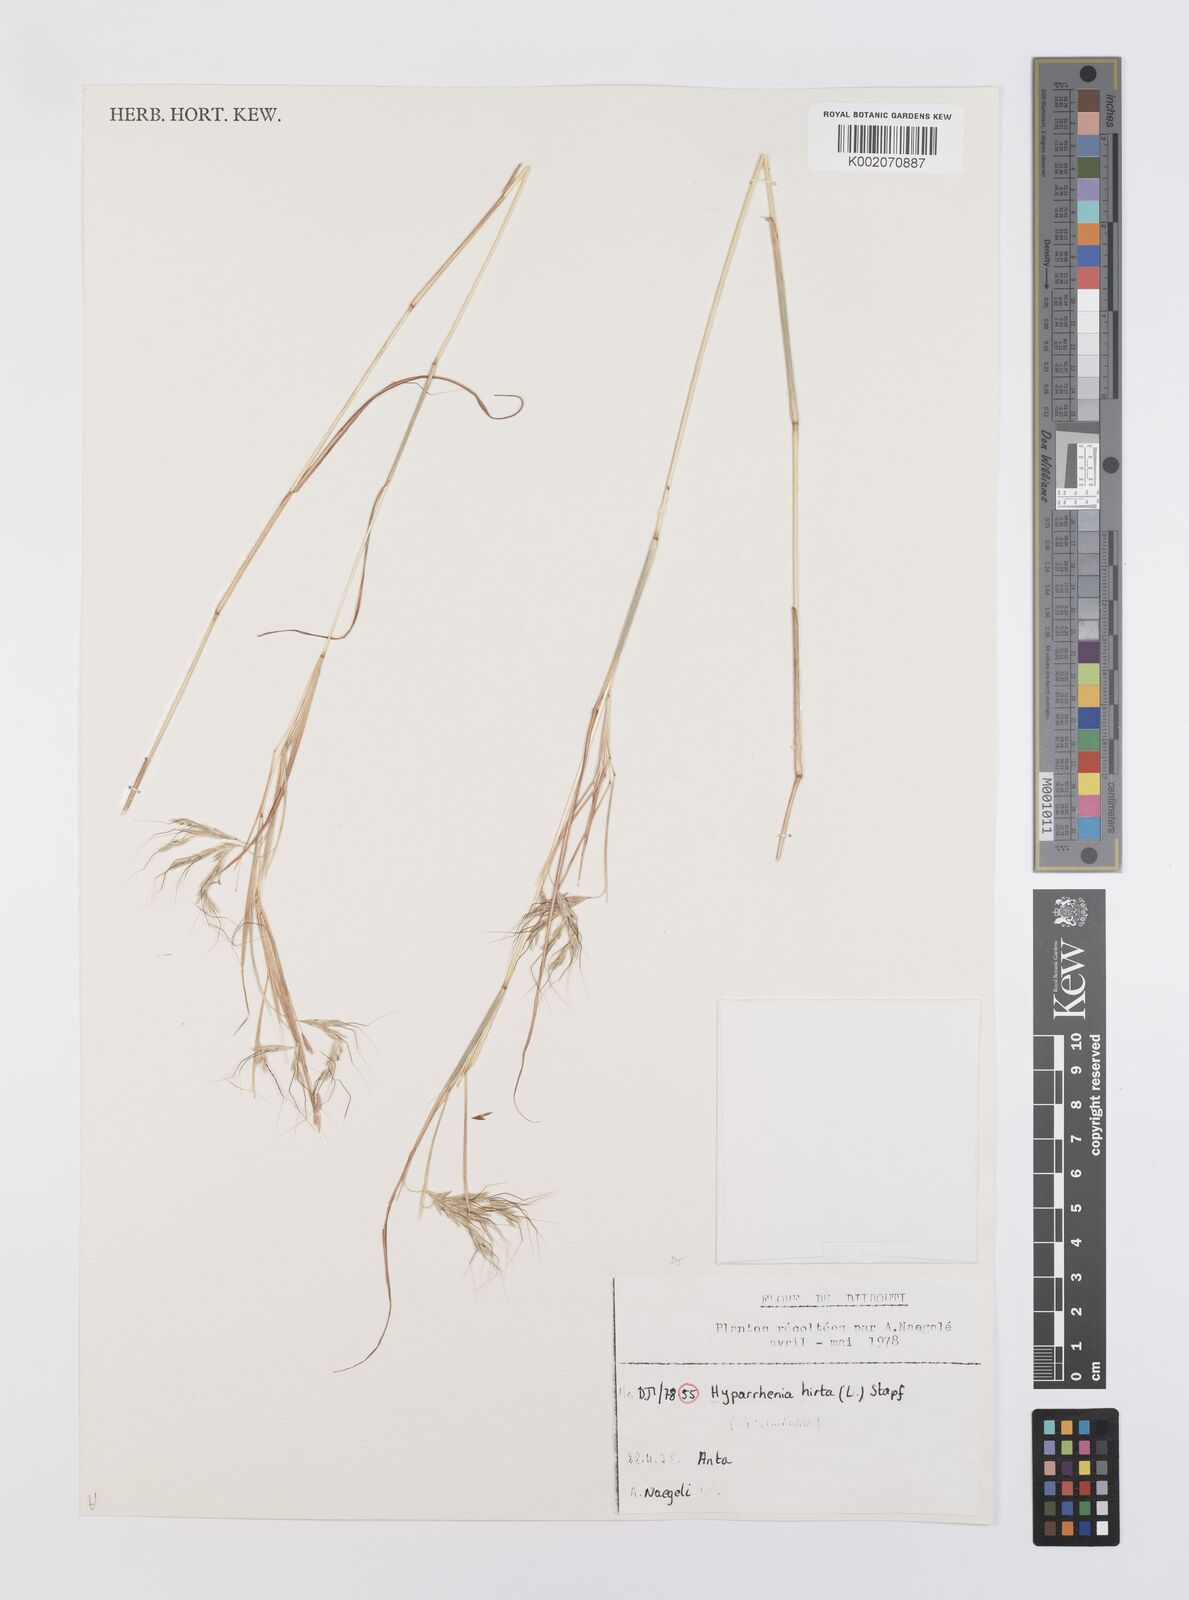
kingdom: Plantae
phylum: Tracheophyta
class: Liliopsida
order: Poales
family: Poaceae
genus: Hyparrhenia
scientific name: Hyparrhenia hirta
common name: Thatching grass
